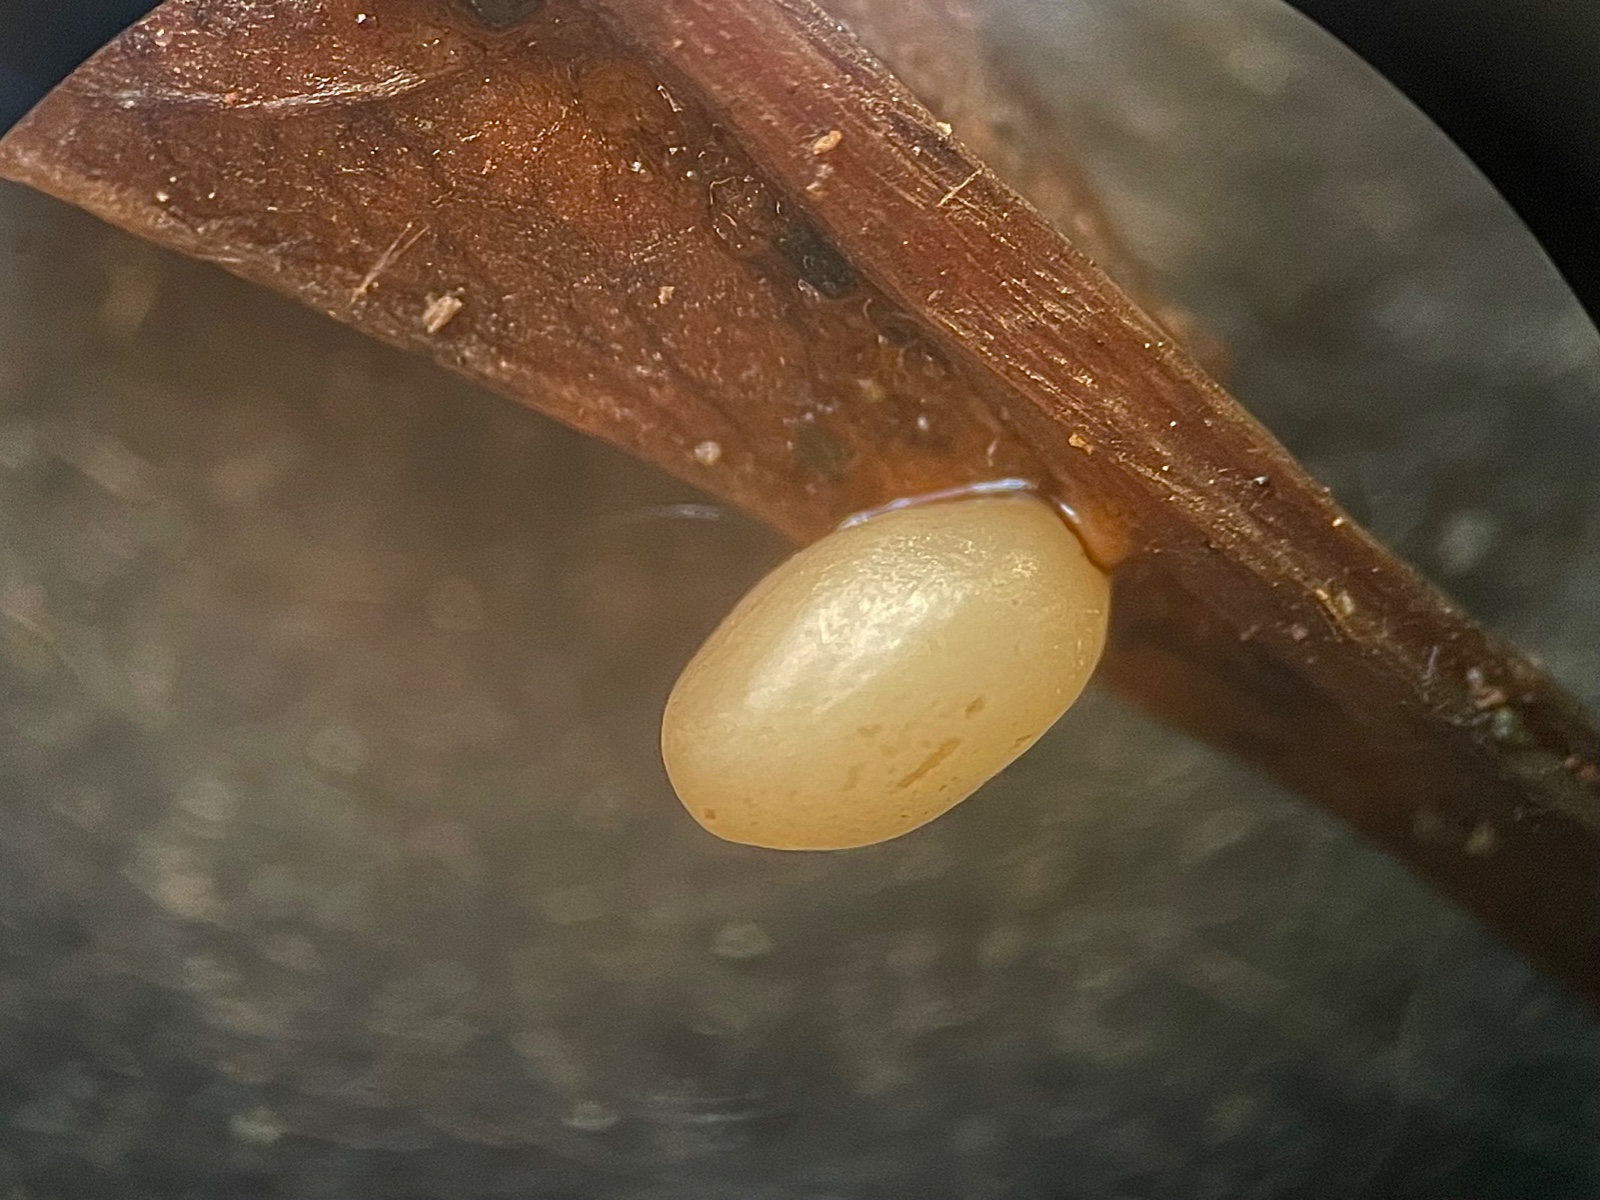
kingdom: Fungi
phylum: Basidiomycota
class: Agaricomycetes
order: Agaricales
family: Typhulaceae
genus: Macrotyphula
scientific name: Macrotyphula phacorrhiza
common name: lang rørkølle
